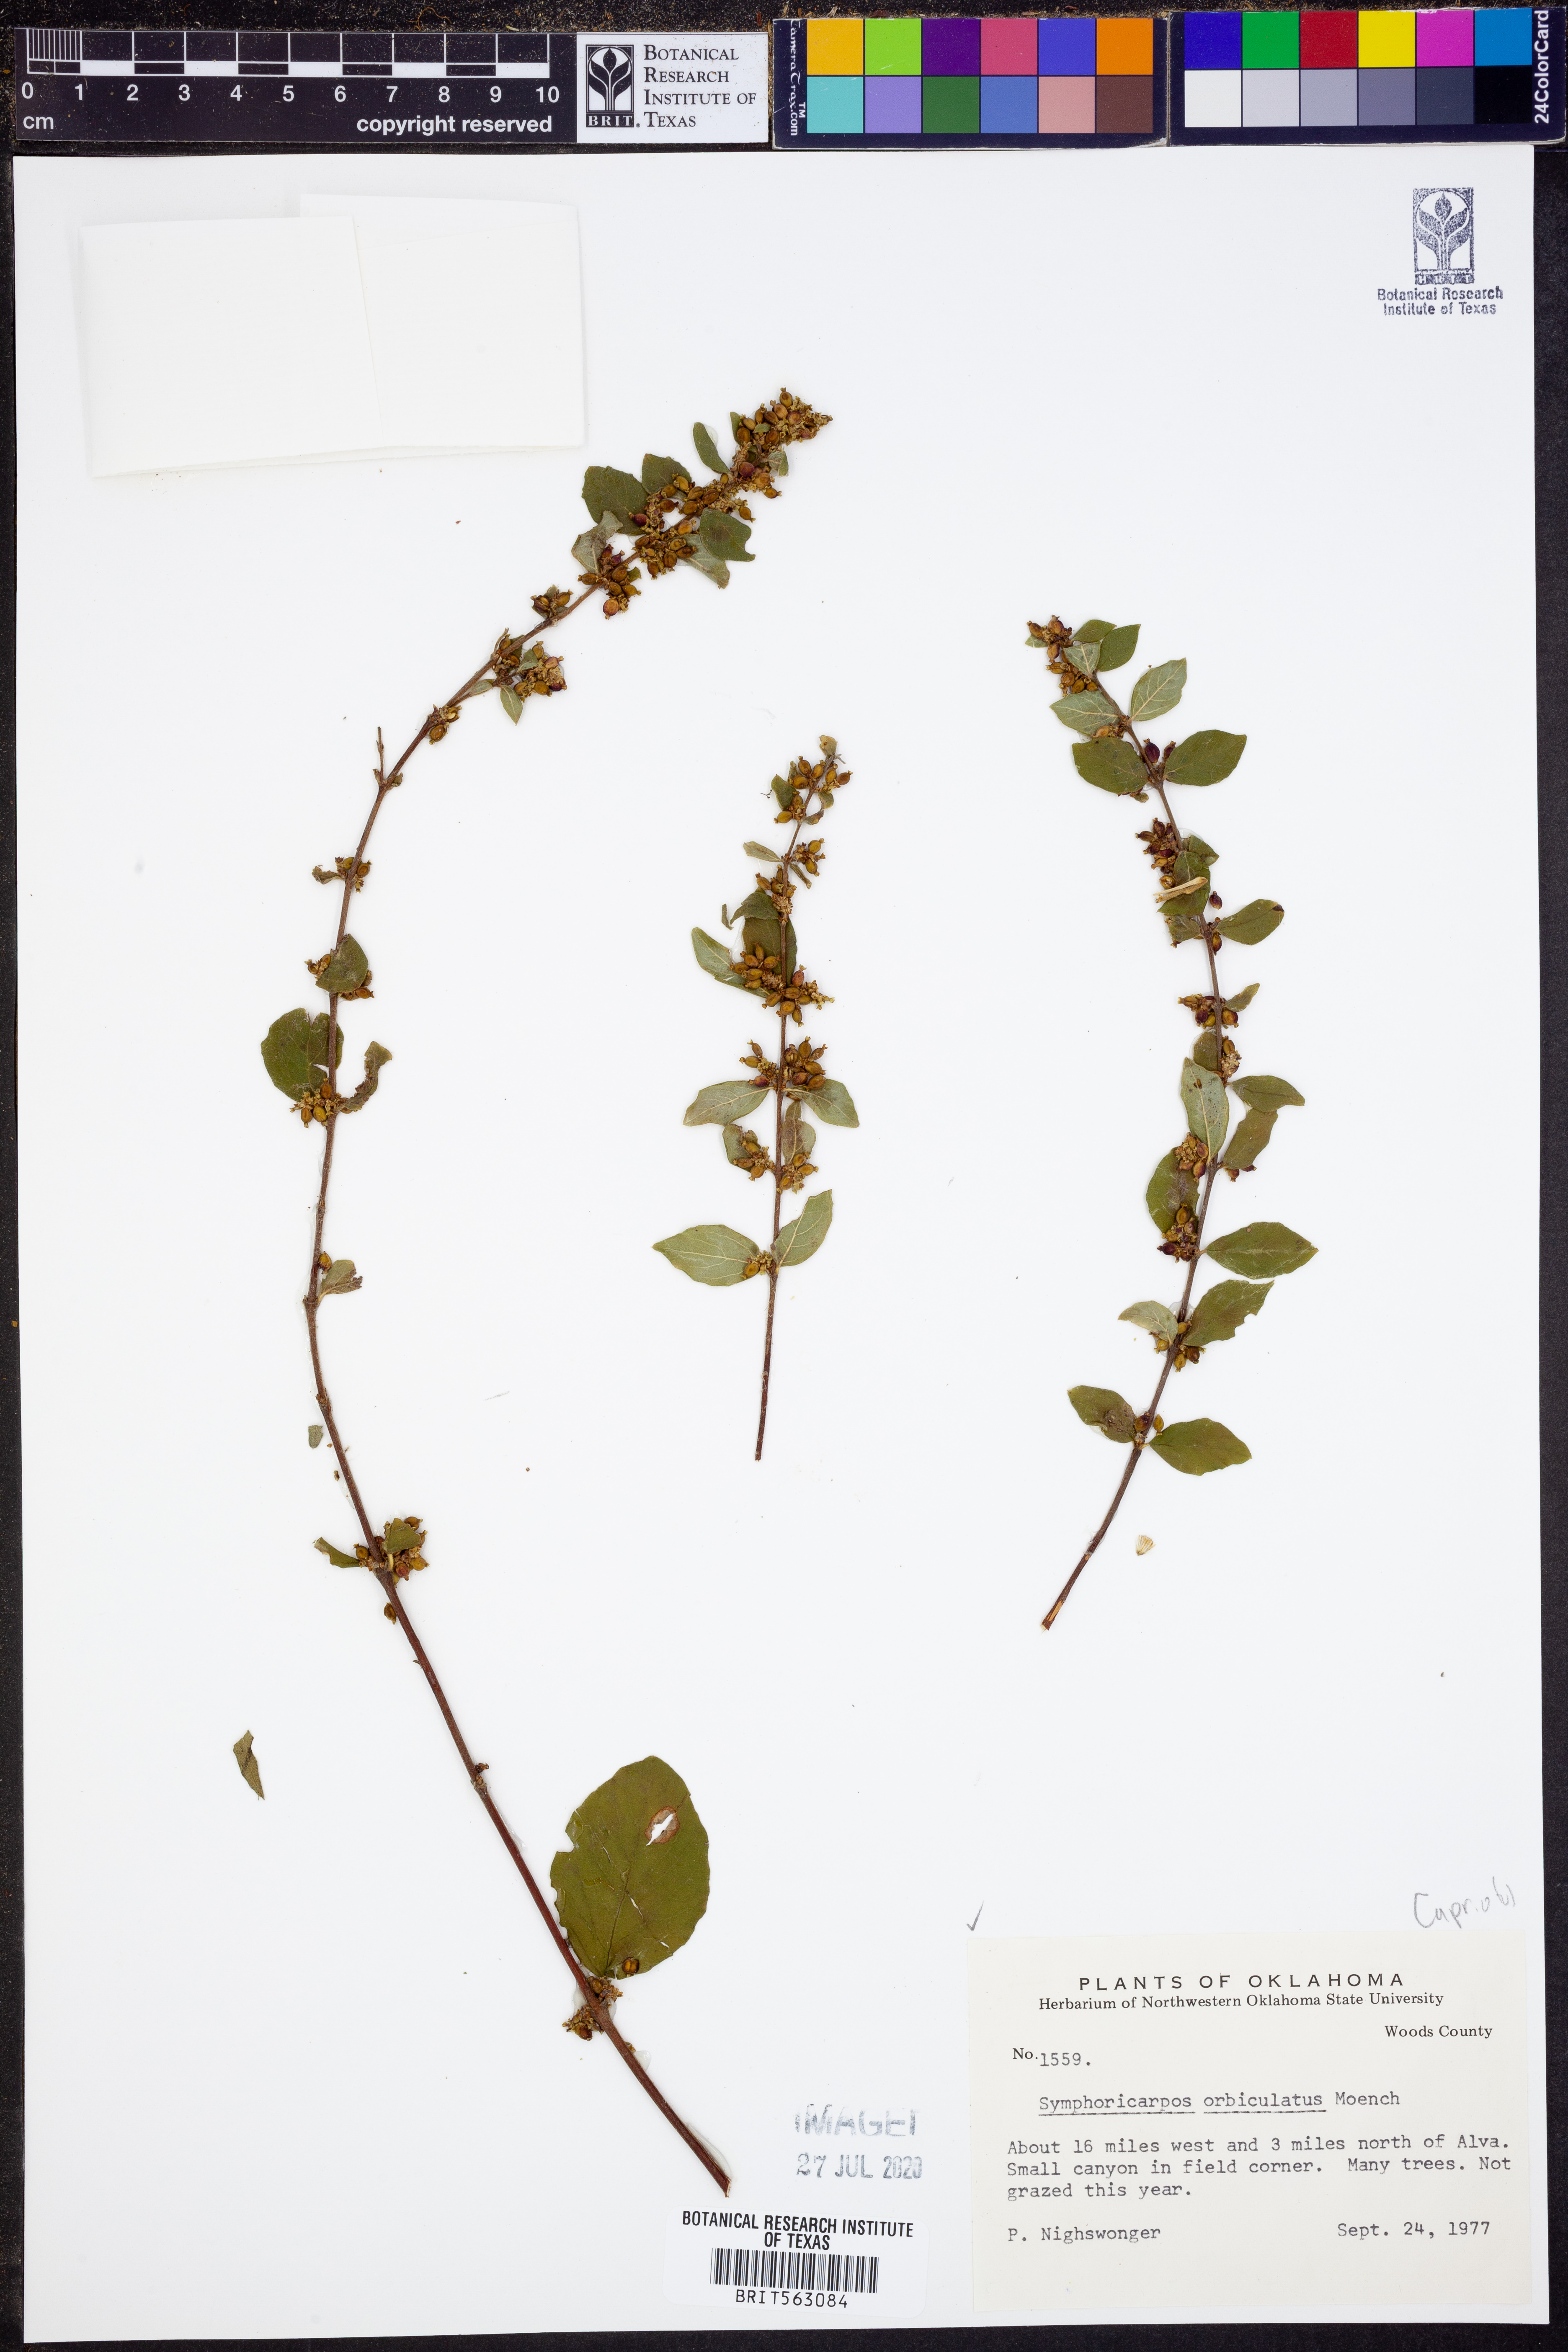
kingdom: Plantae
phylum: Tracheophyta
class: Magnoliopsida
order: Dipsacales
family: Caprifoliaceae
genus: Symphoricarpos
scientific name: Symphoricarpos orbiculatus
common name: Coralberry
